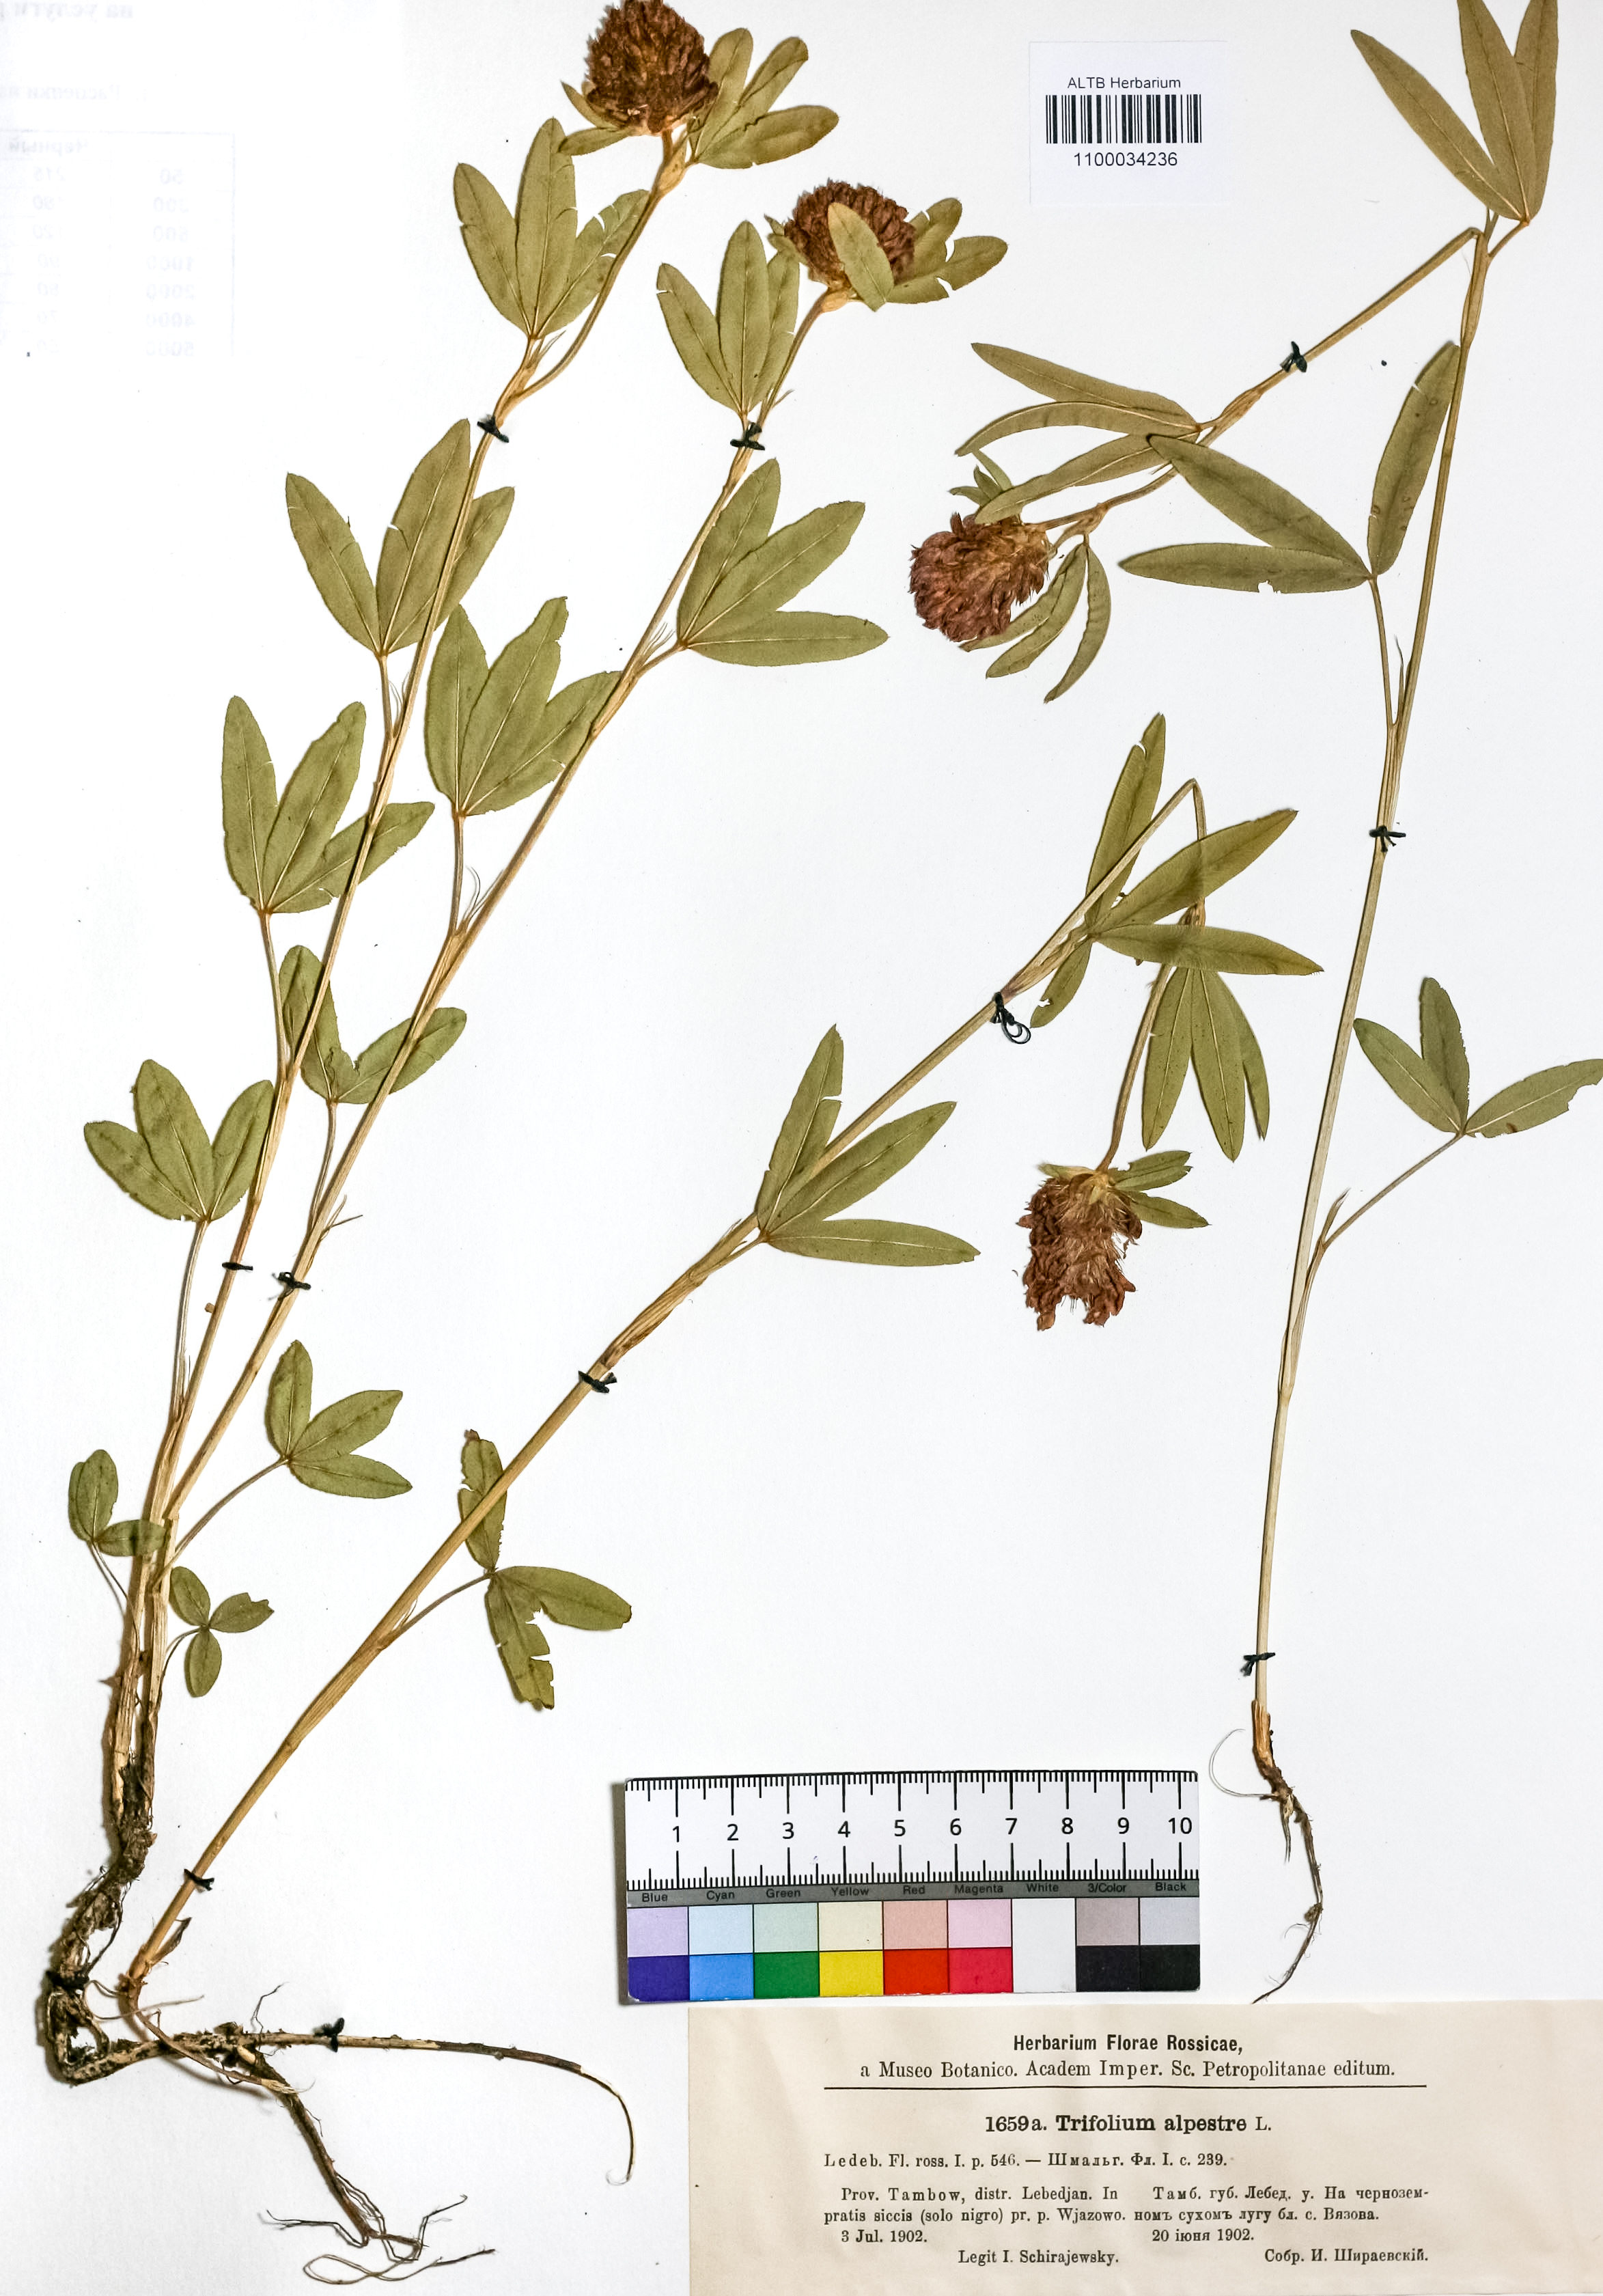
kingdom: Plantae
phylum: Tracheophyta
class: Magnoliopsida
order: Fabales
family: Fabaceae
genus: Trifolium
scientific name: Trifolium alpestre
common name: Owl-head clover
